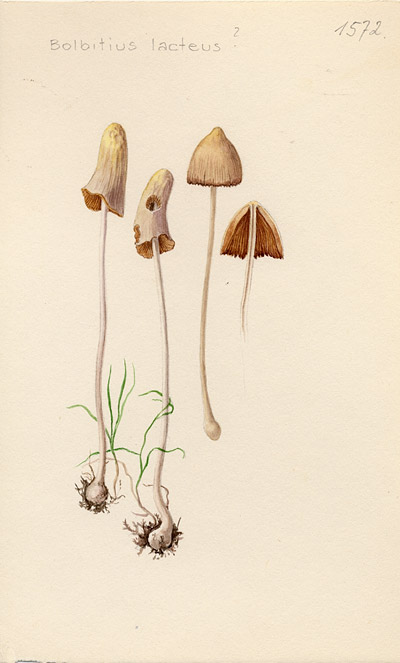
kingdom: Fungi
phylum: Basidiomycota
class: Agaricomycetes
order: Agaricales
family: Bolbitiaceae
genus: Bolbitius
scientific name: Bolbitius lacteus
